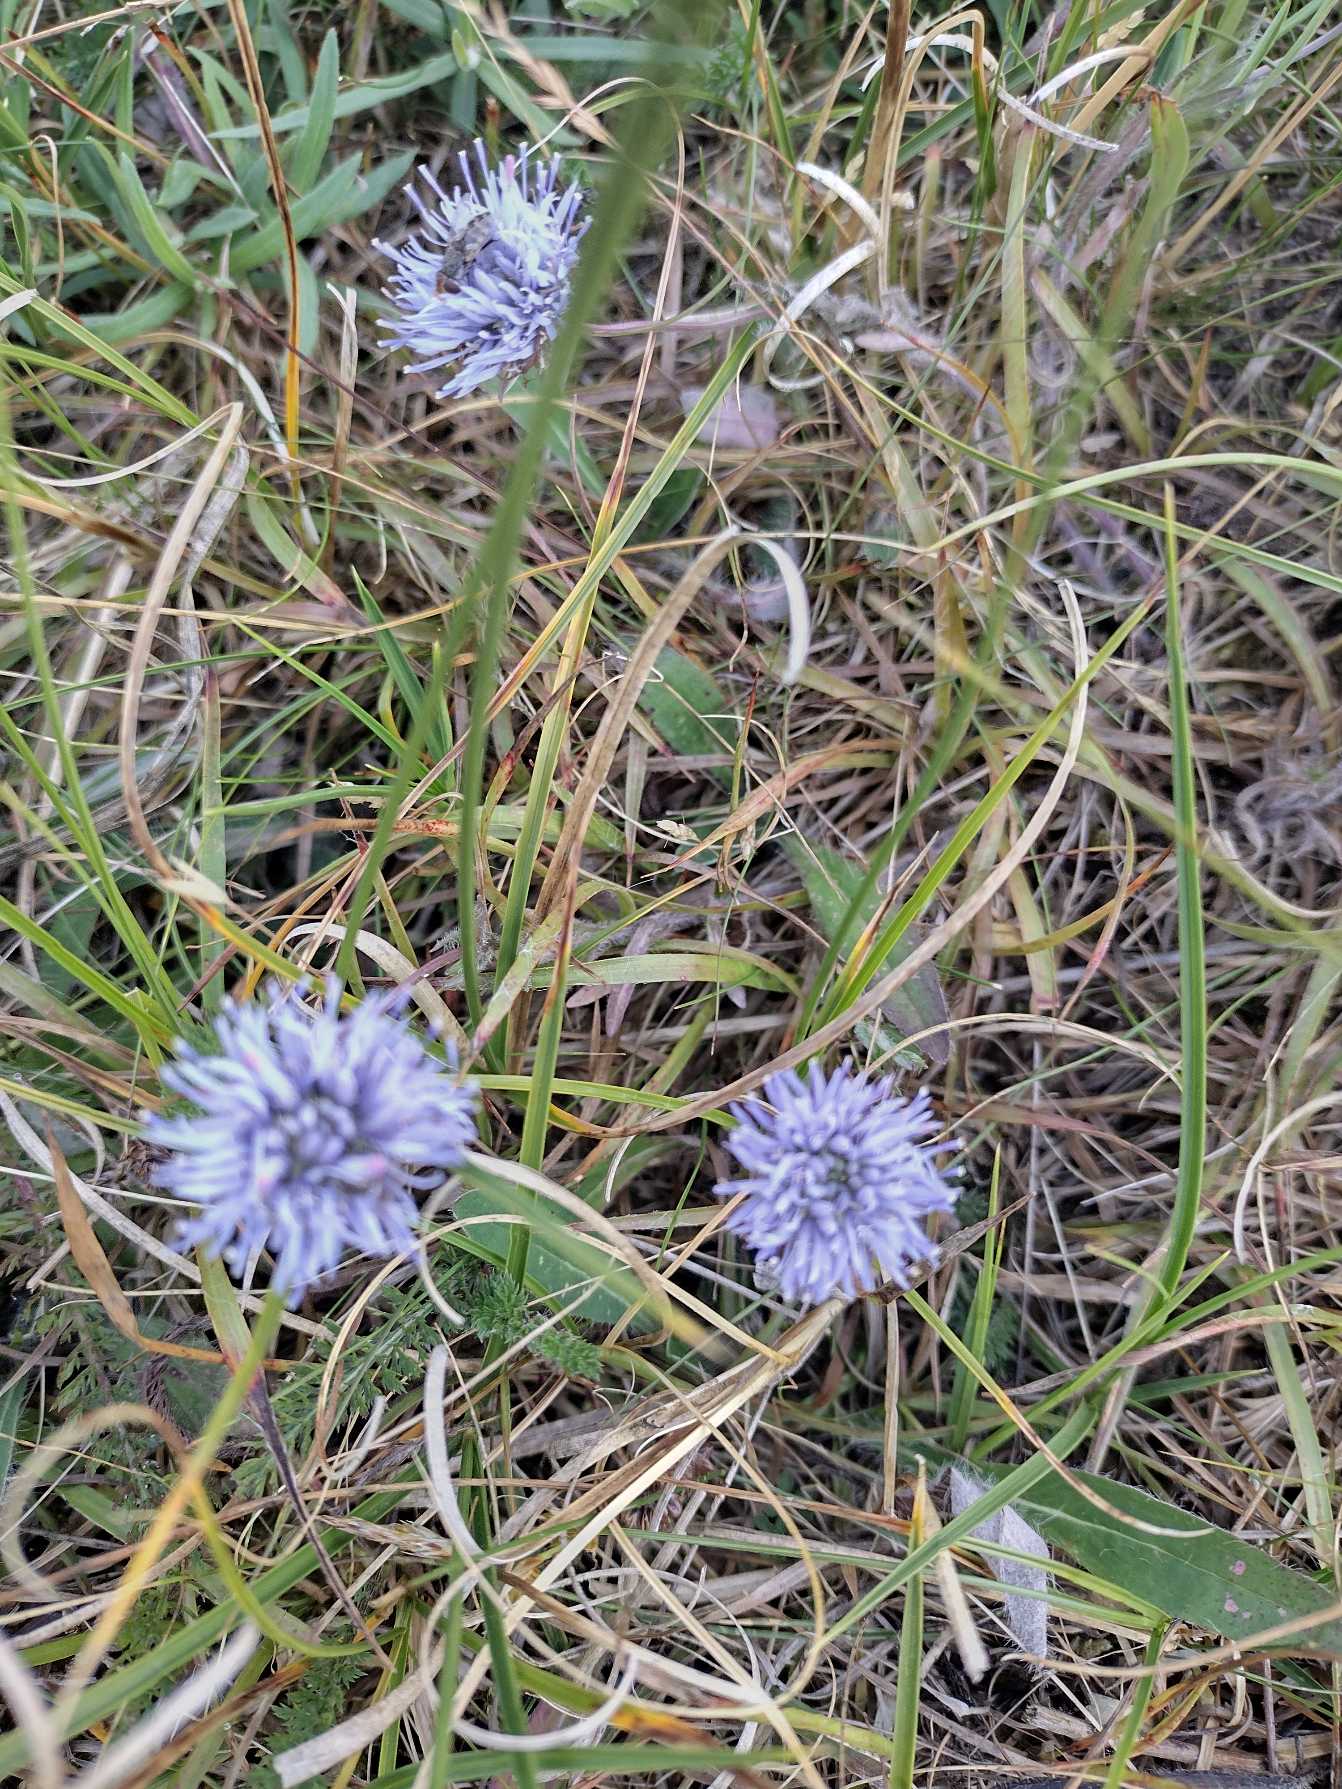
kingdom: Plantae
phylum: Tracheophyta
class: Magnoliopsida
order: Asterales
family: Campanulaceae
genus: Jasione
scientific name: Jasione montana
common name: Blåmunke
